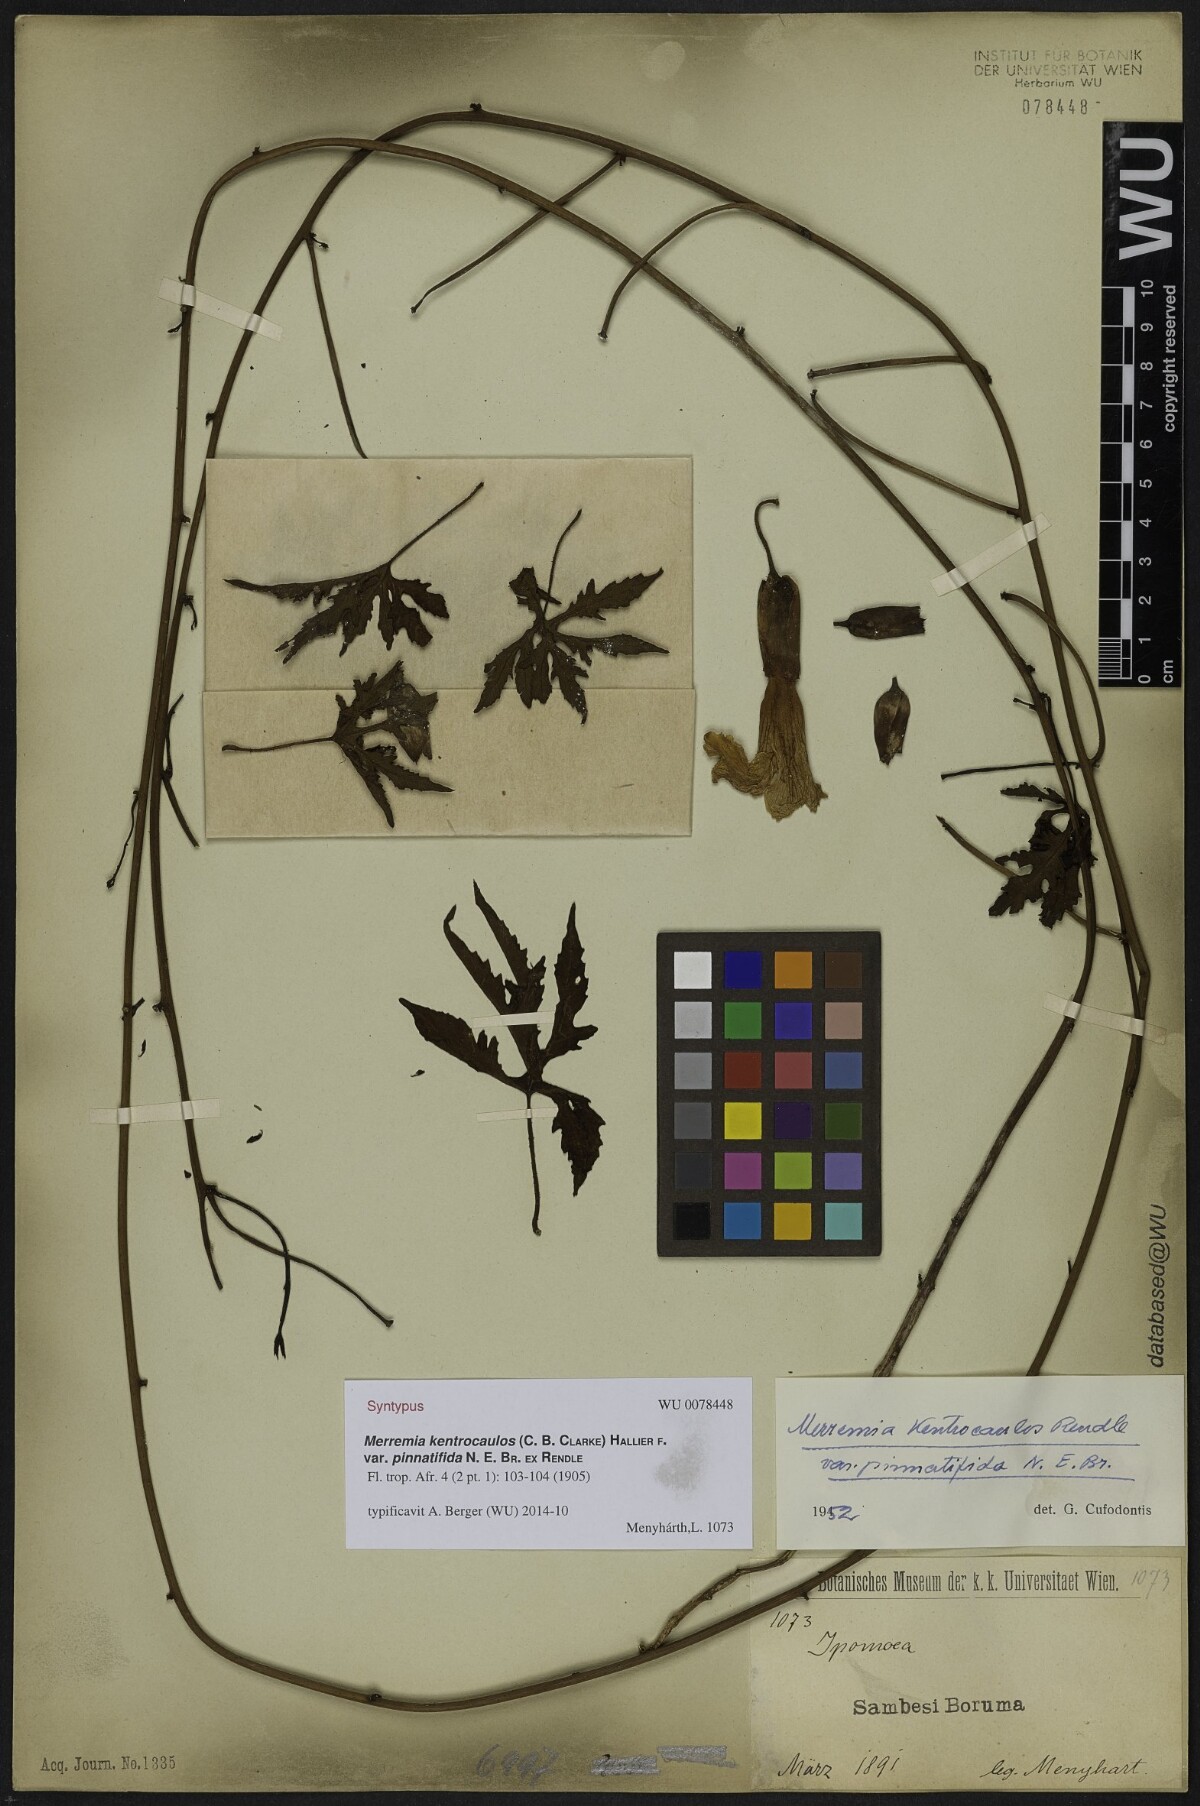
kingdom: Plantae
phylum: Tracheophyta
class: Magnoliopsida
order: Solanales
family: Convolvulaceae
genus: Distimake
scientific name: Distimake kentrocaulos
